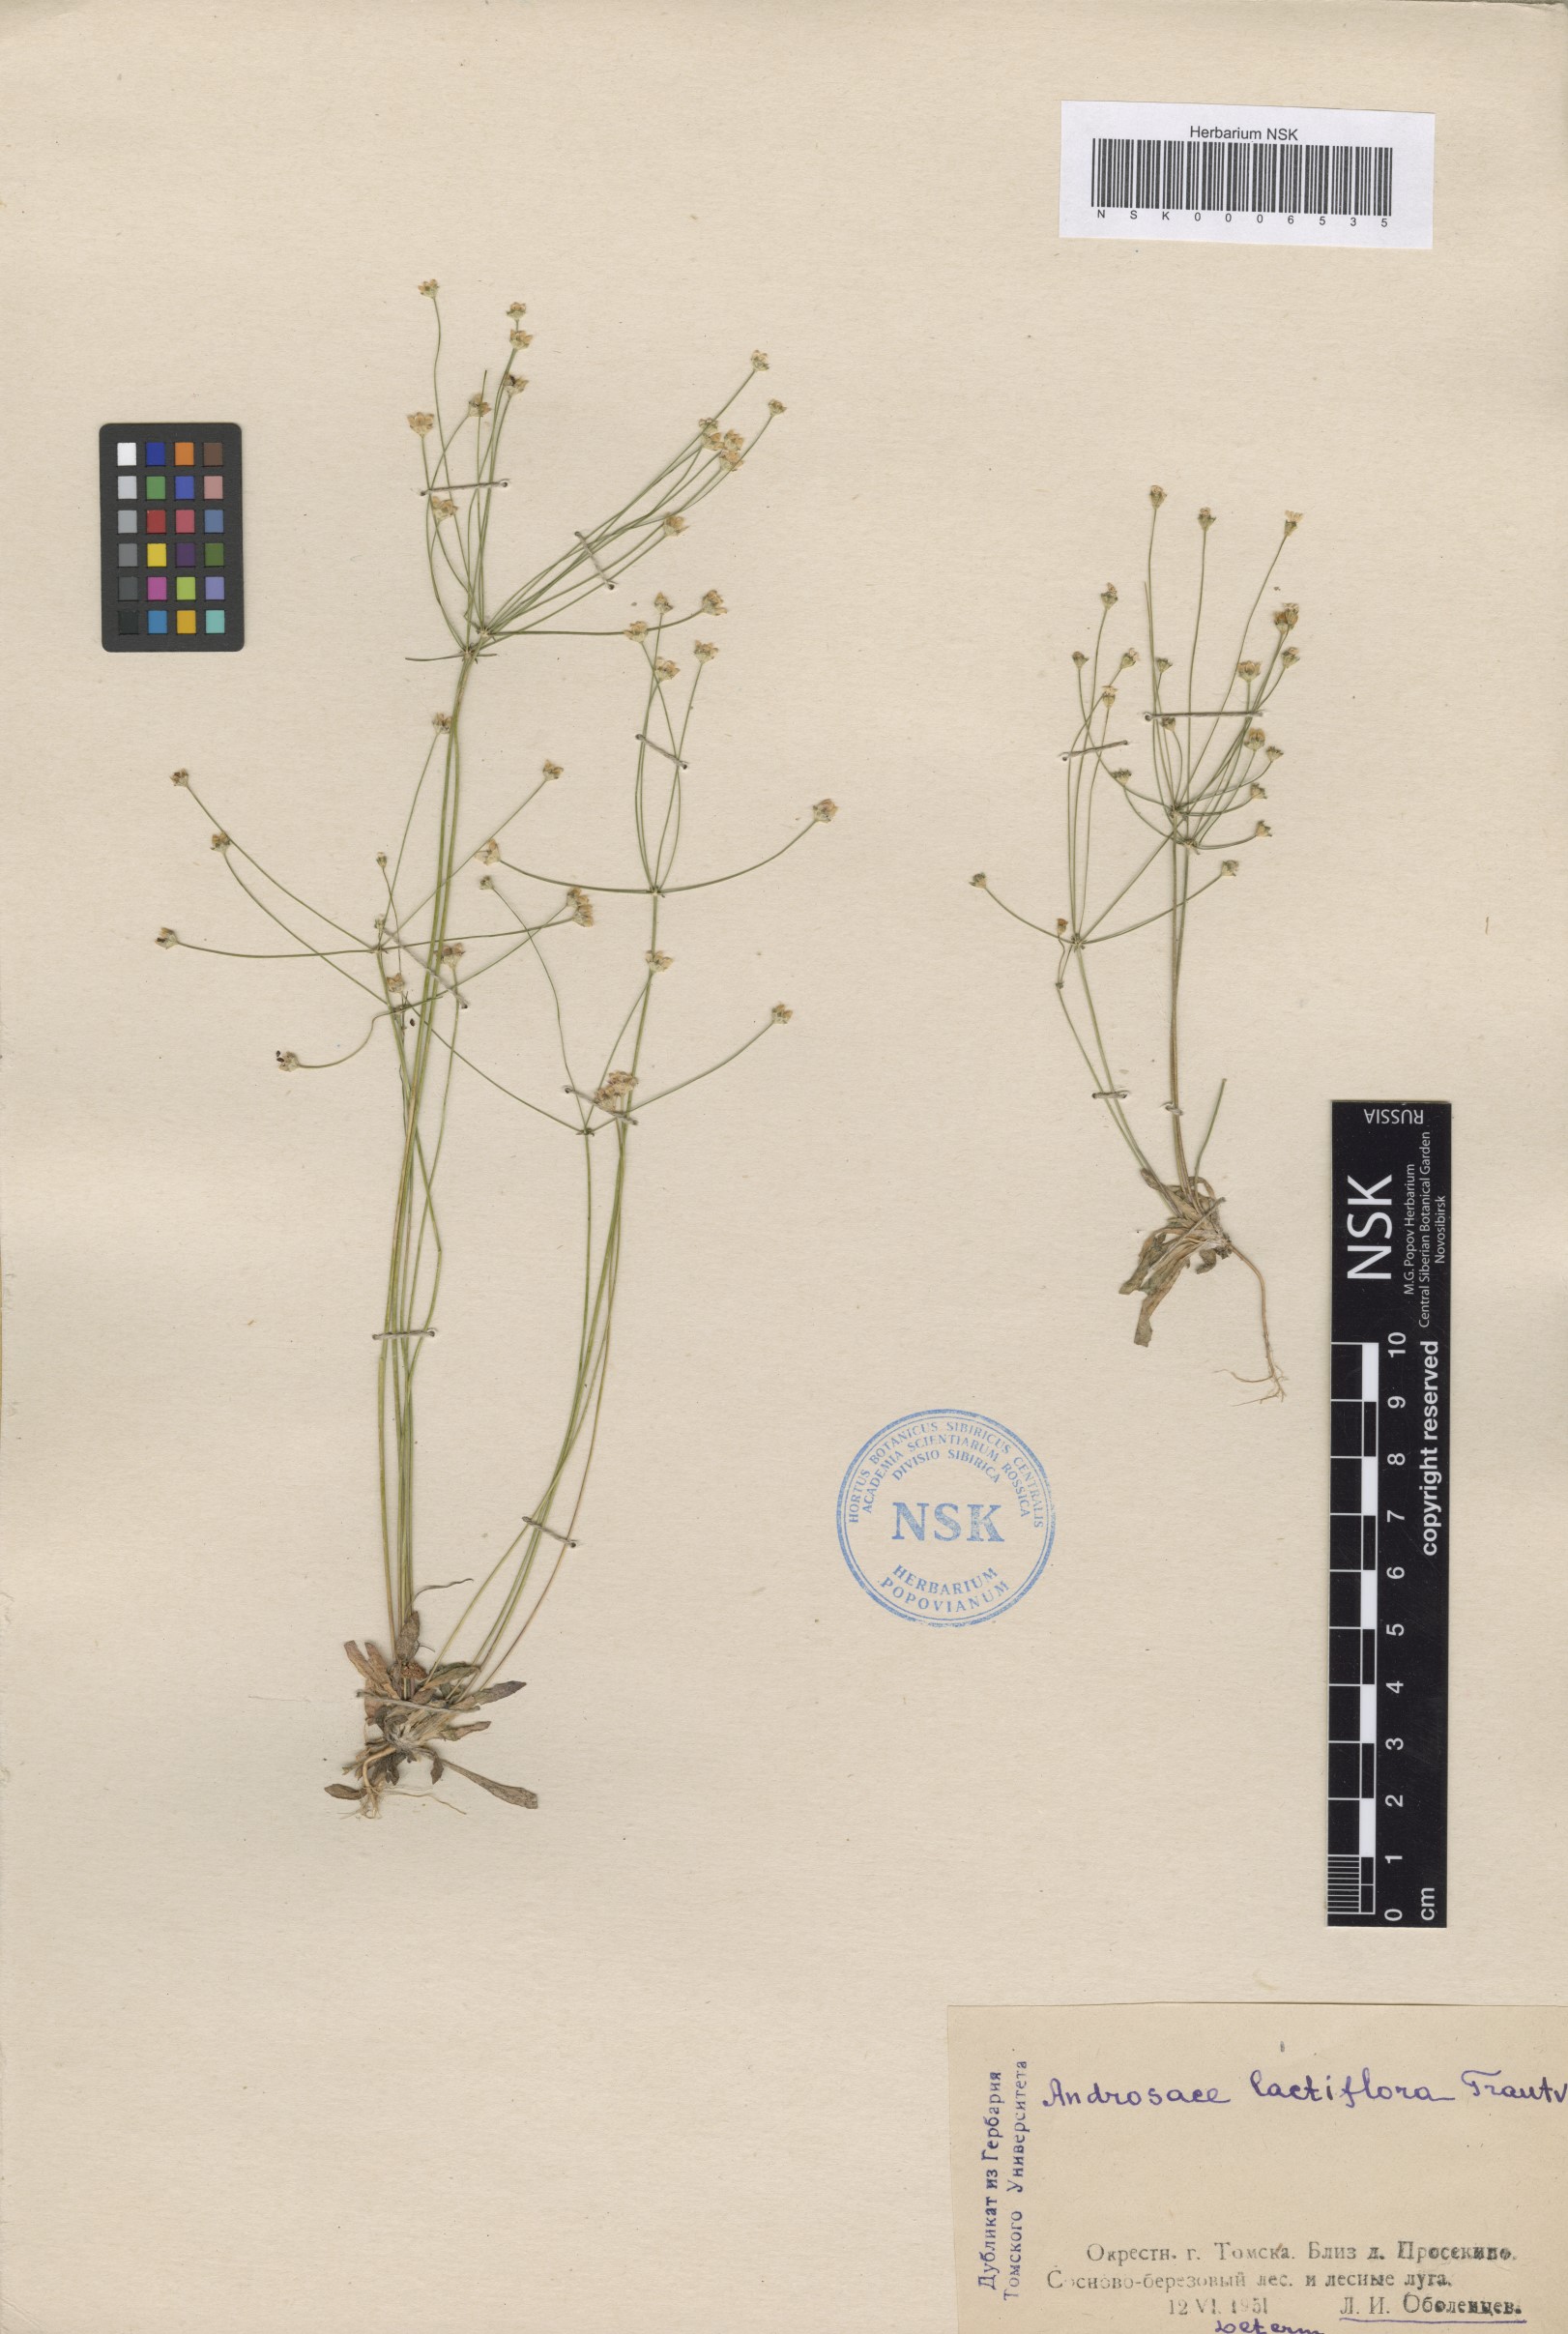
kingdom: Plantae
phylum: Tracheophyta
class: Magnoliopsida
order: Ericales
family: Primulaceae
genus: Androsace
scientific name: Androsace lactiflora
